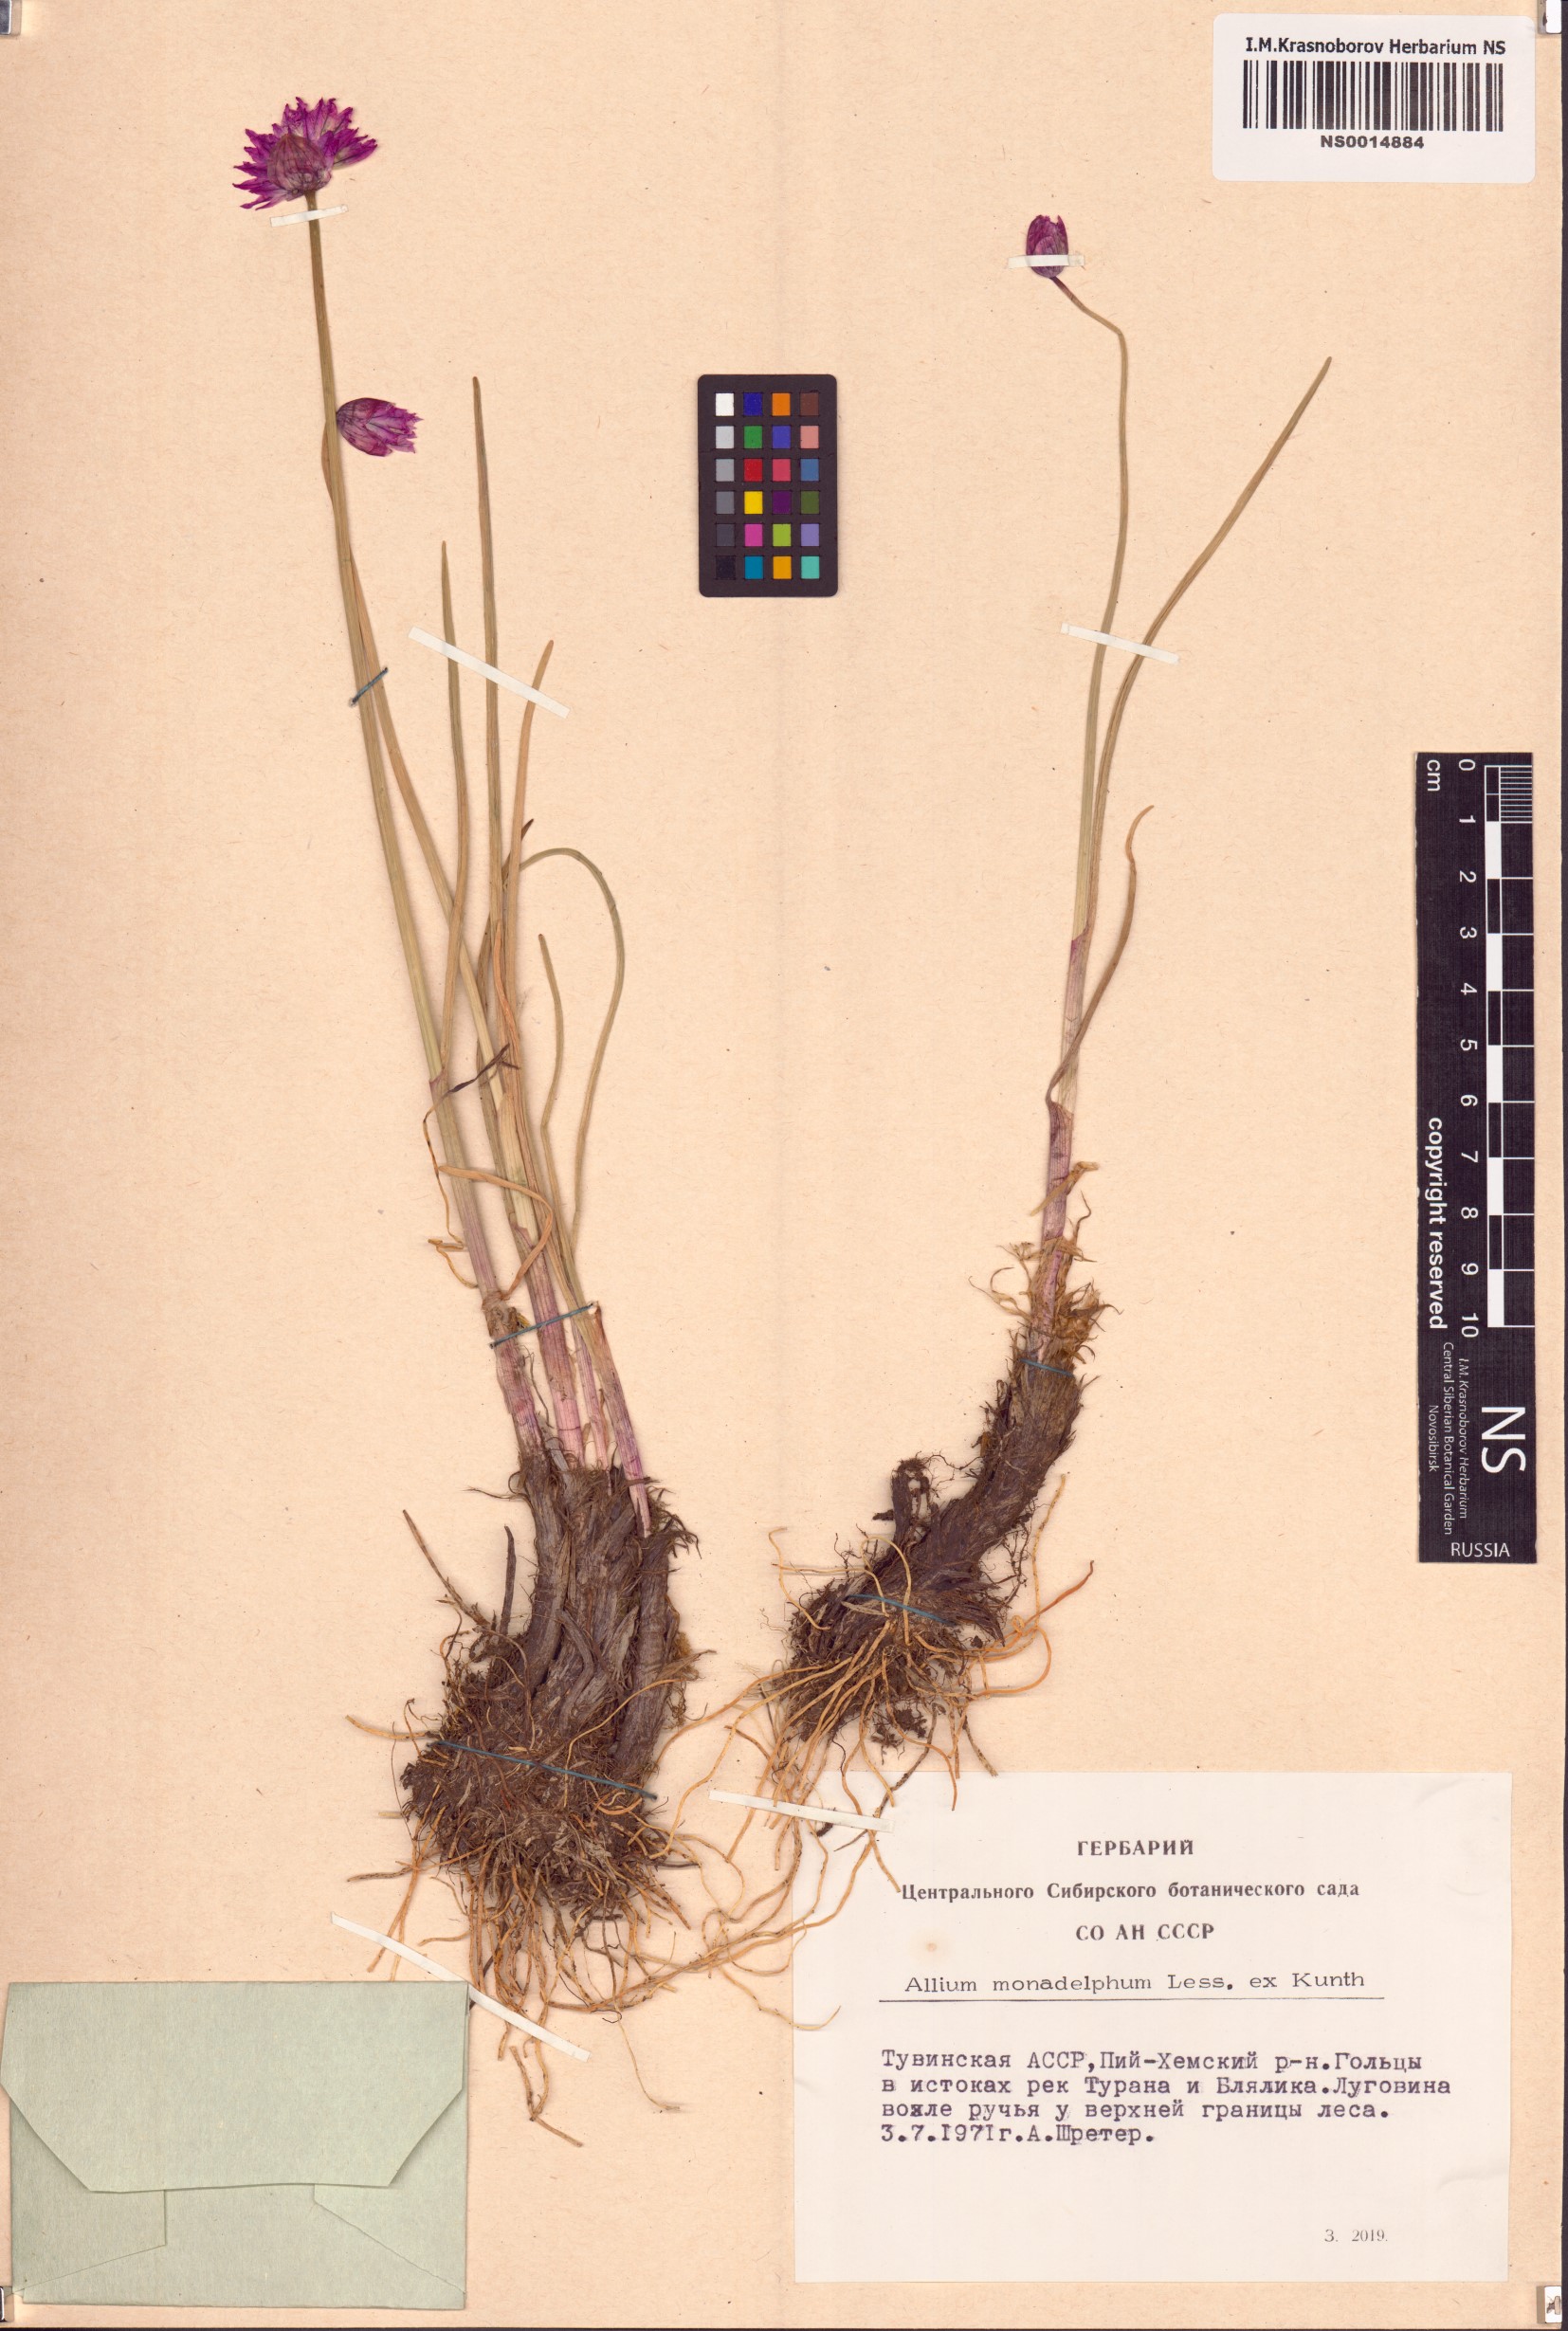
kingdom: Plantae
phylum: Tracheophyta
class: Liliopsida
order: Asparagales
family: Amaryllidaceae
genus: Allium
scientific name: Allium atrosanguineum
